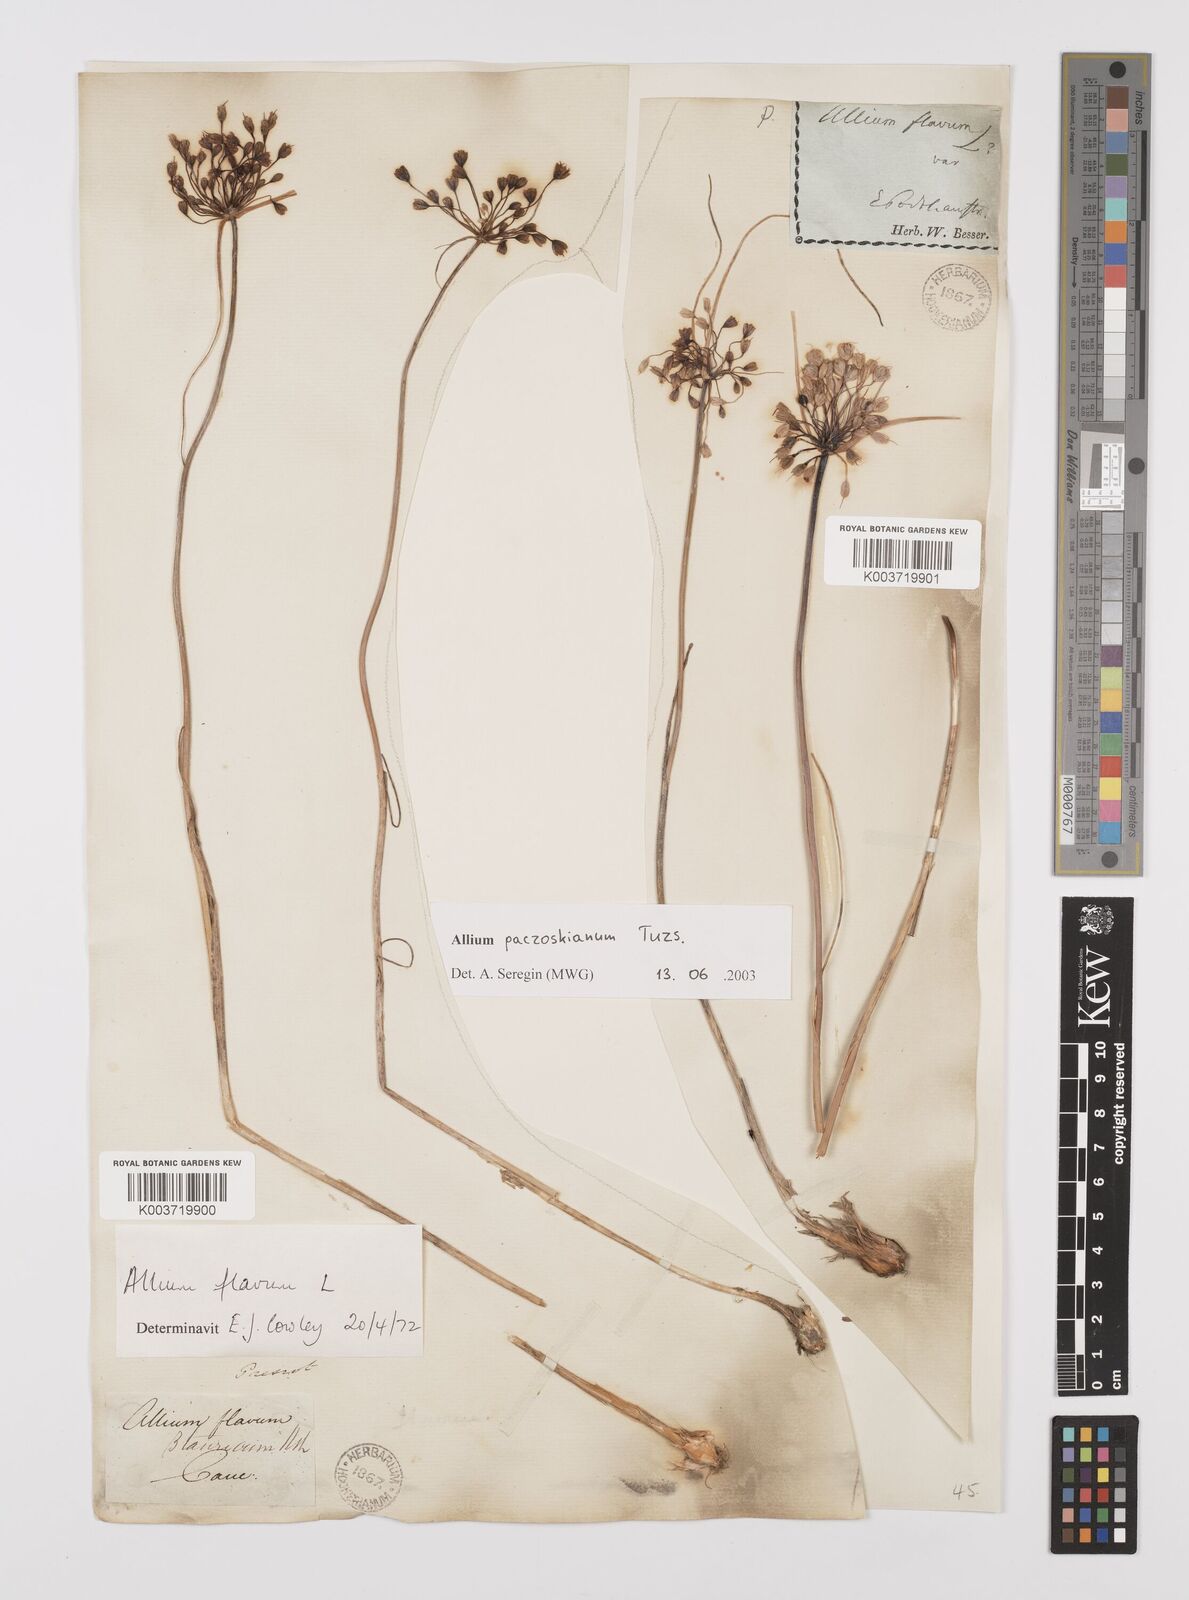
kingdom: Plantae
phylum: Tracheophyta
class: Liliopsida
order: Asparagales
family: Amaryllidaceae
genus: Allium
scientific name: Allium flavum
